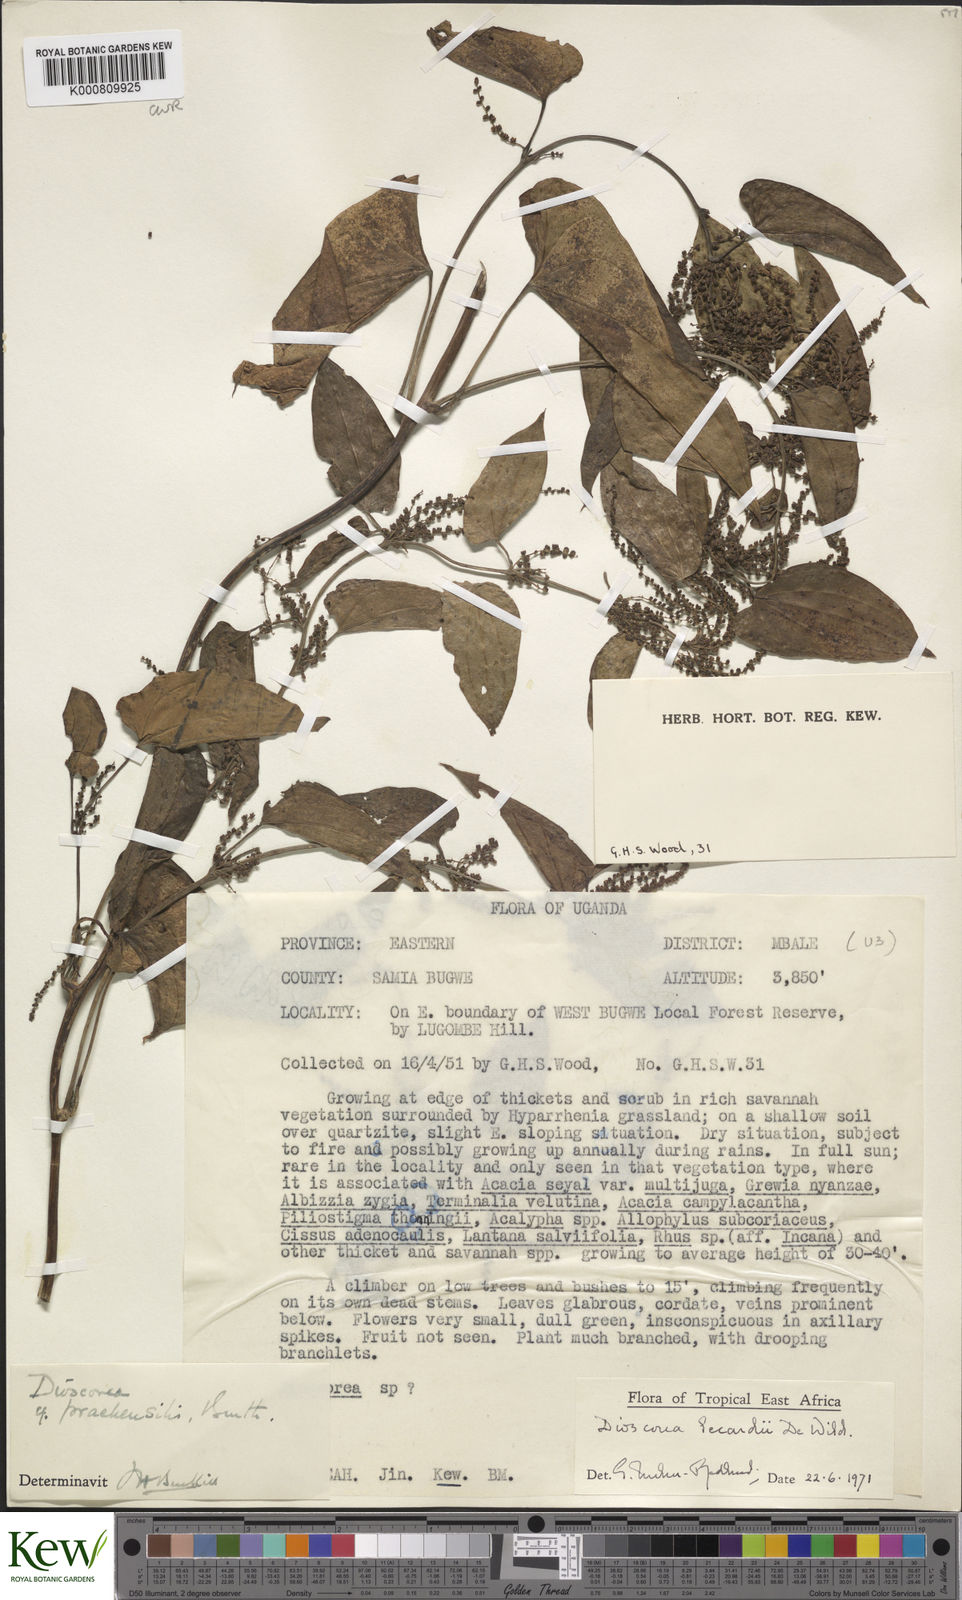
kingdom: Plantae
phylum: Tracheophyta
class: Liliopsida
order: Dioscoreales
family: Dioscoreaceae
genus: Dioscorea
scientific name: Dioscorea sagittifolia
